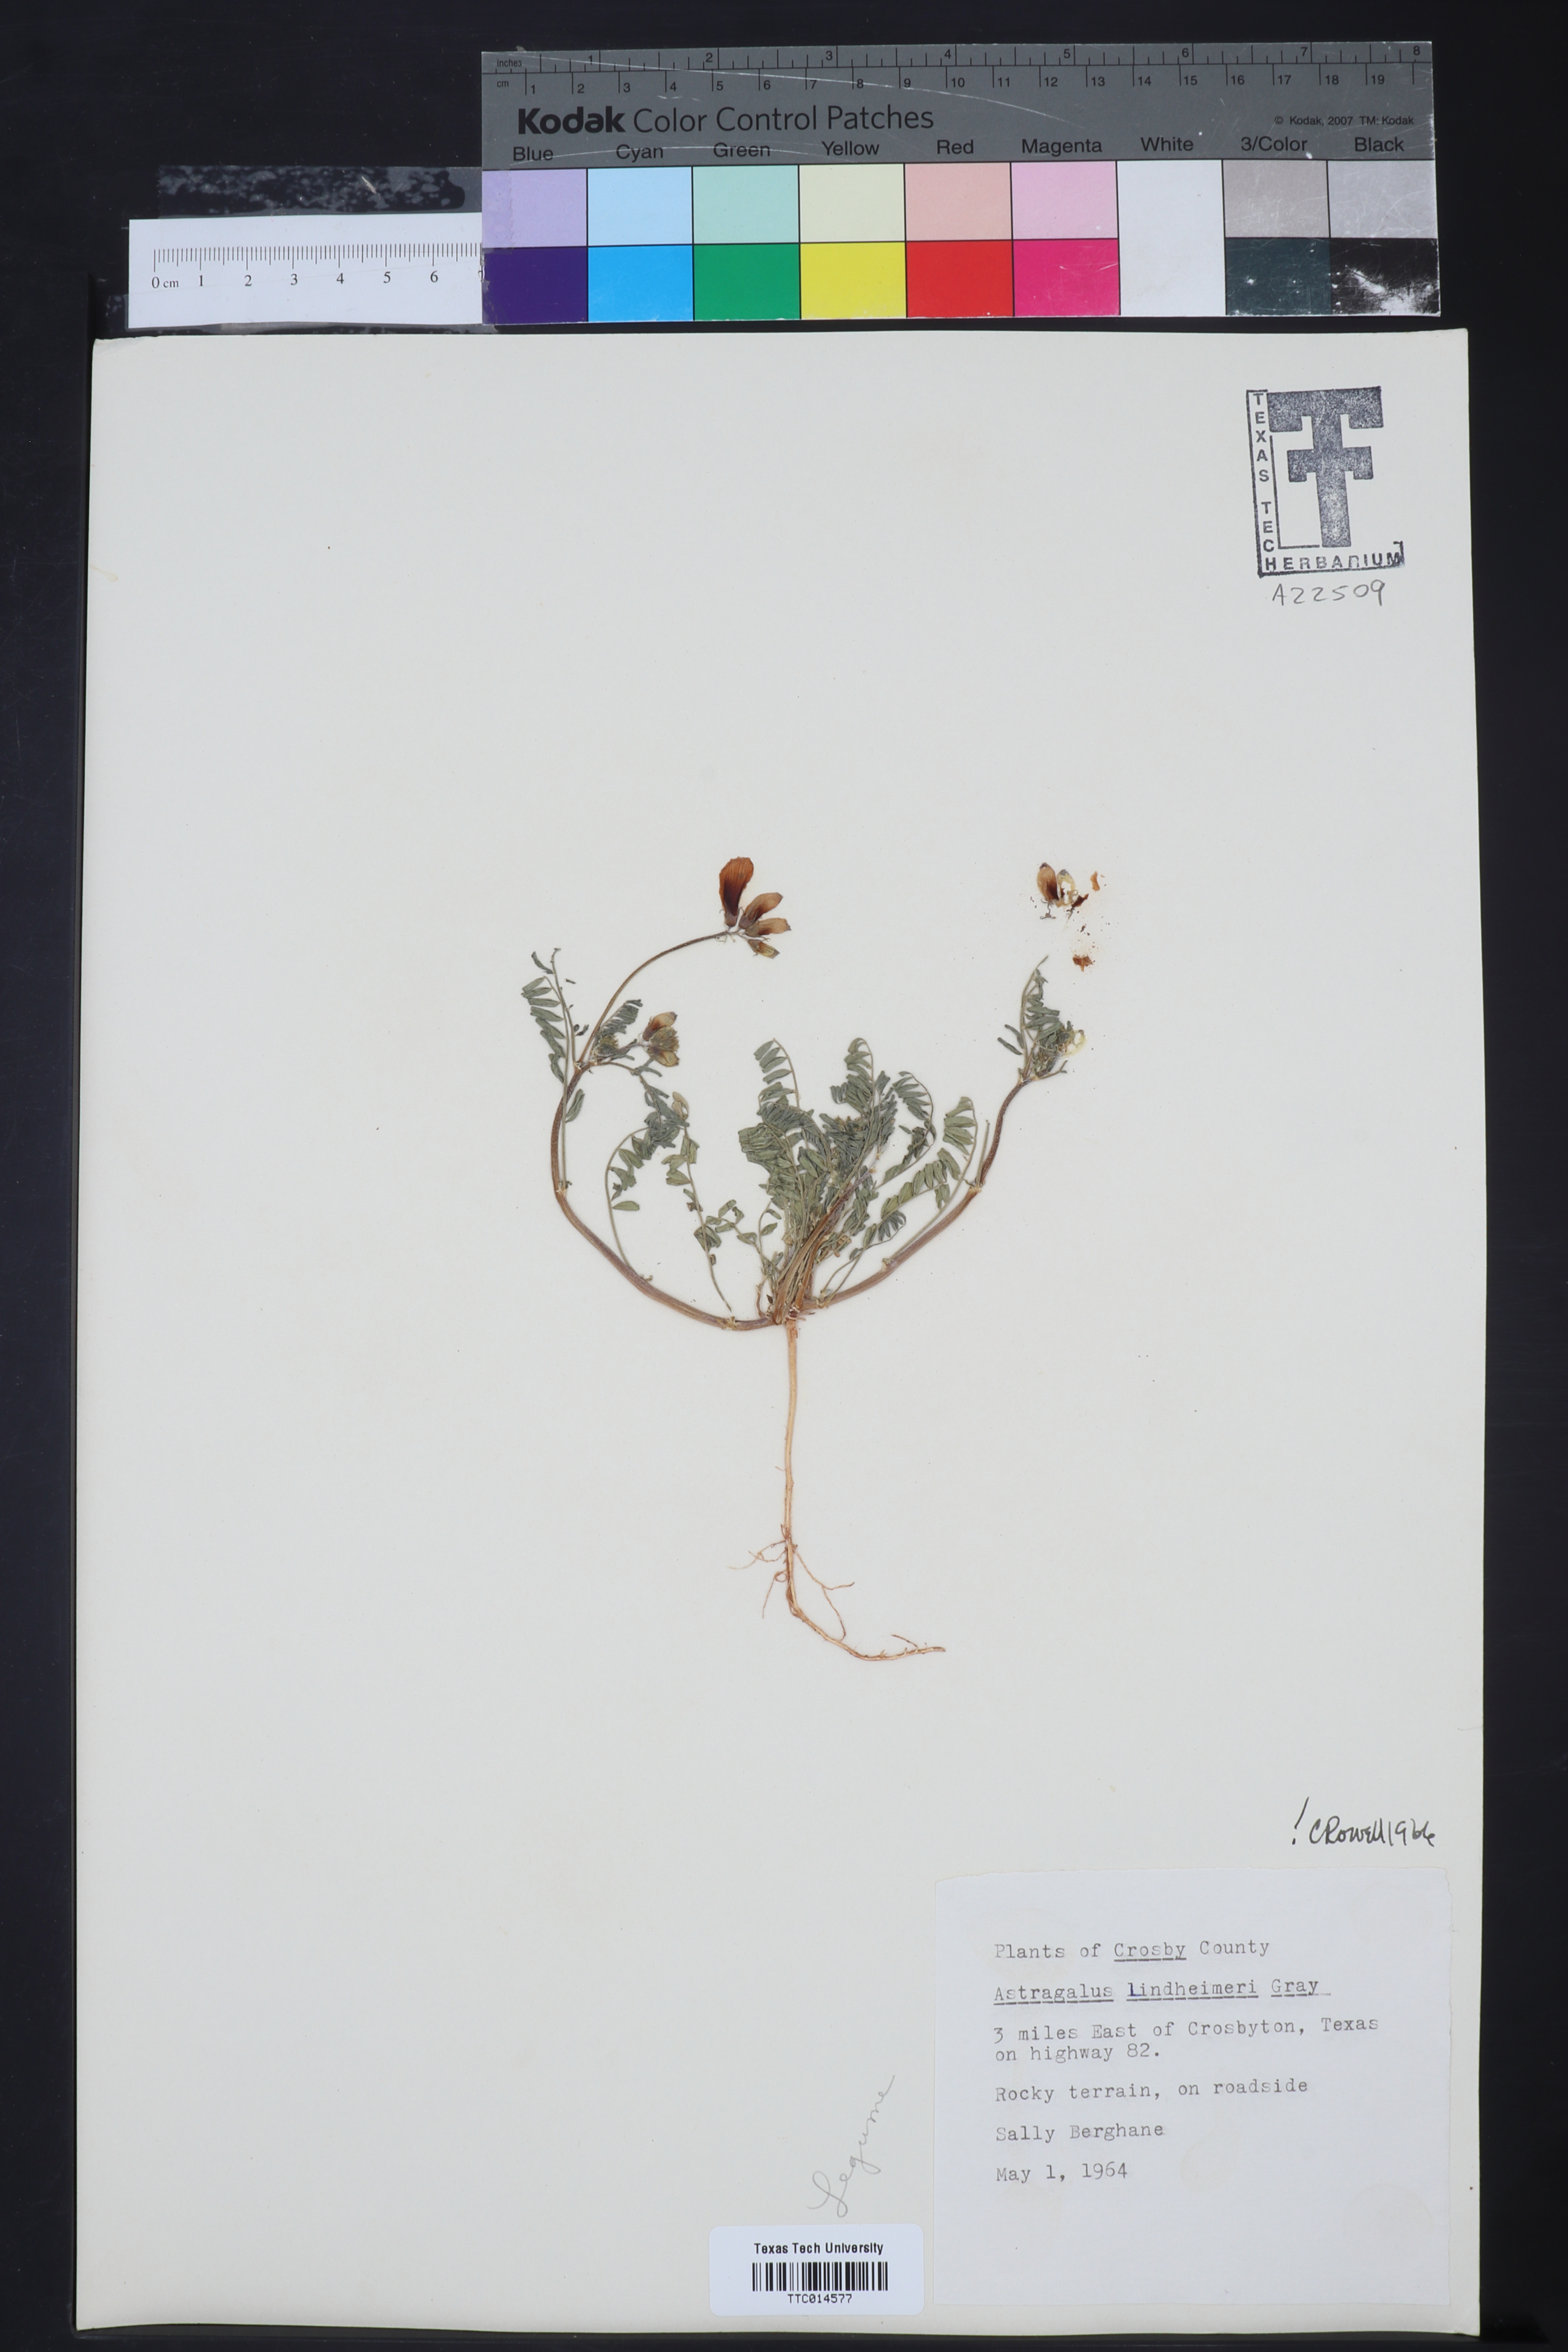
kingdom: Plantae
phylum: Tracheophyta
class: Magnoliopsida
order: Fabales
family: Fabaceae
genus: Astragalus
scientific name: Astragalus
